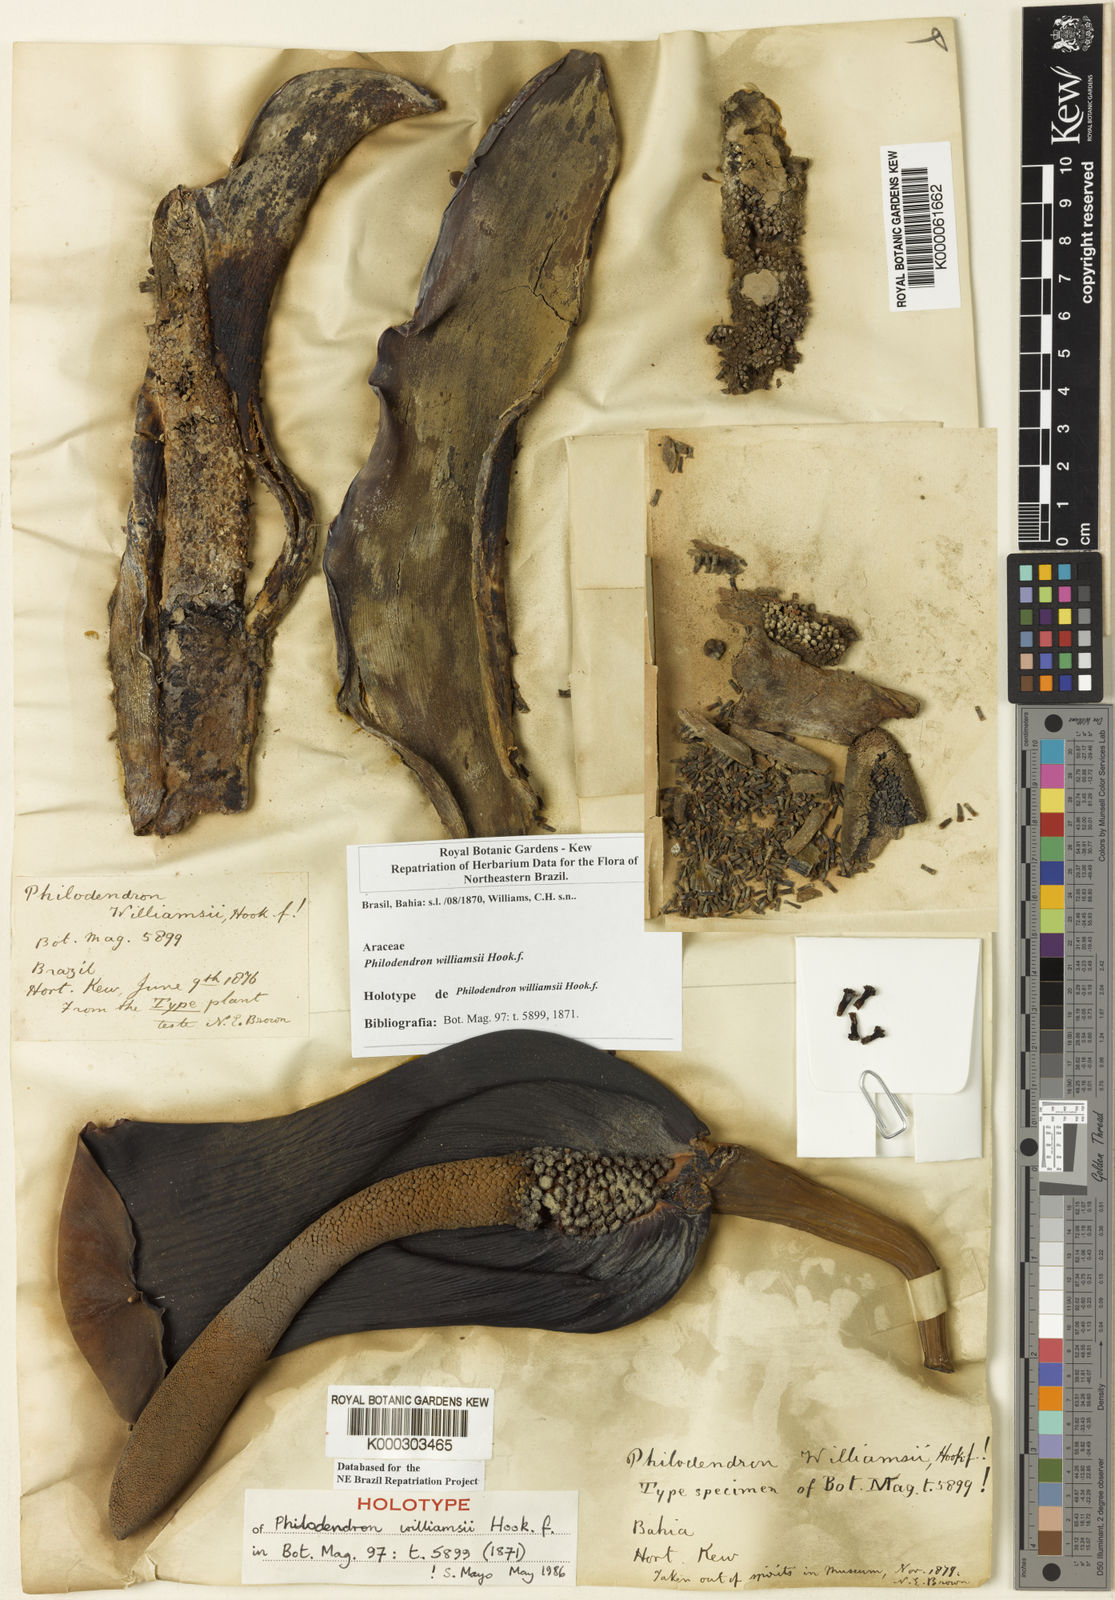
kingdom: Plantae
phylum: Tracheophyta
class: Liliopsida
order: Alismatales
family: Araceae
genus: Thaumatophyllum
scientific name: Thaumatophyllum williamsii
